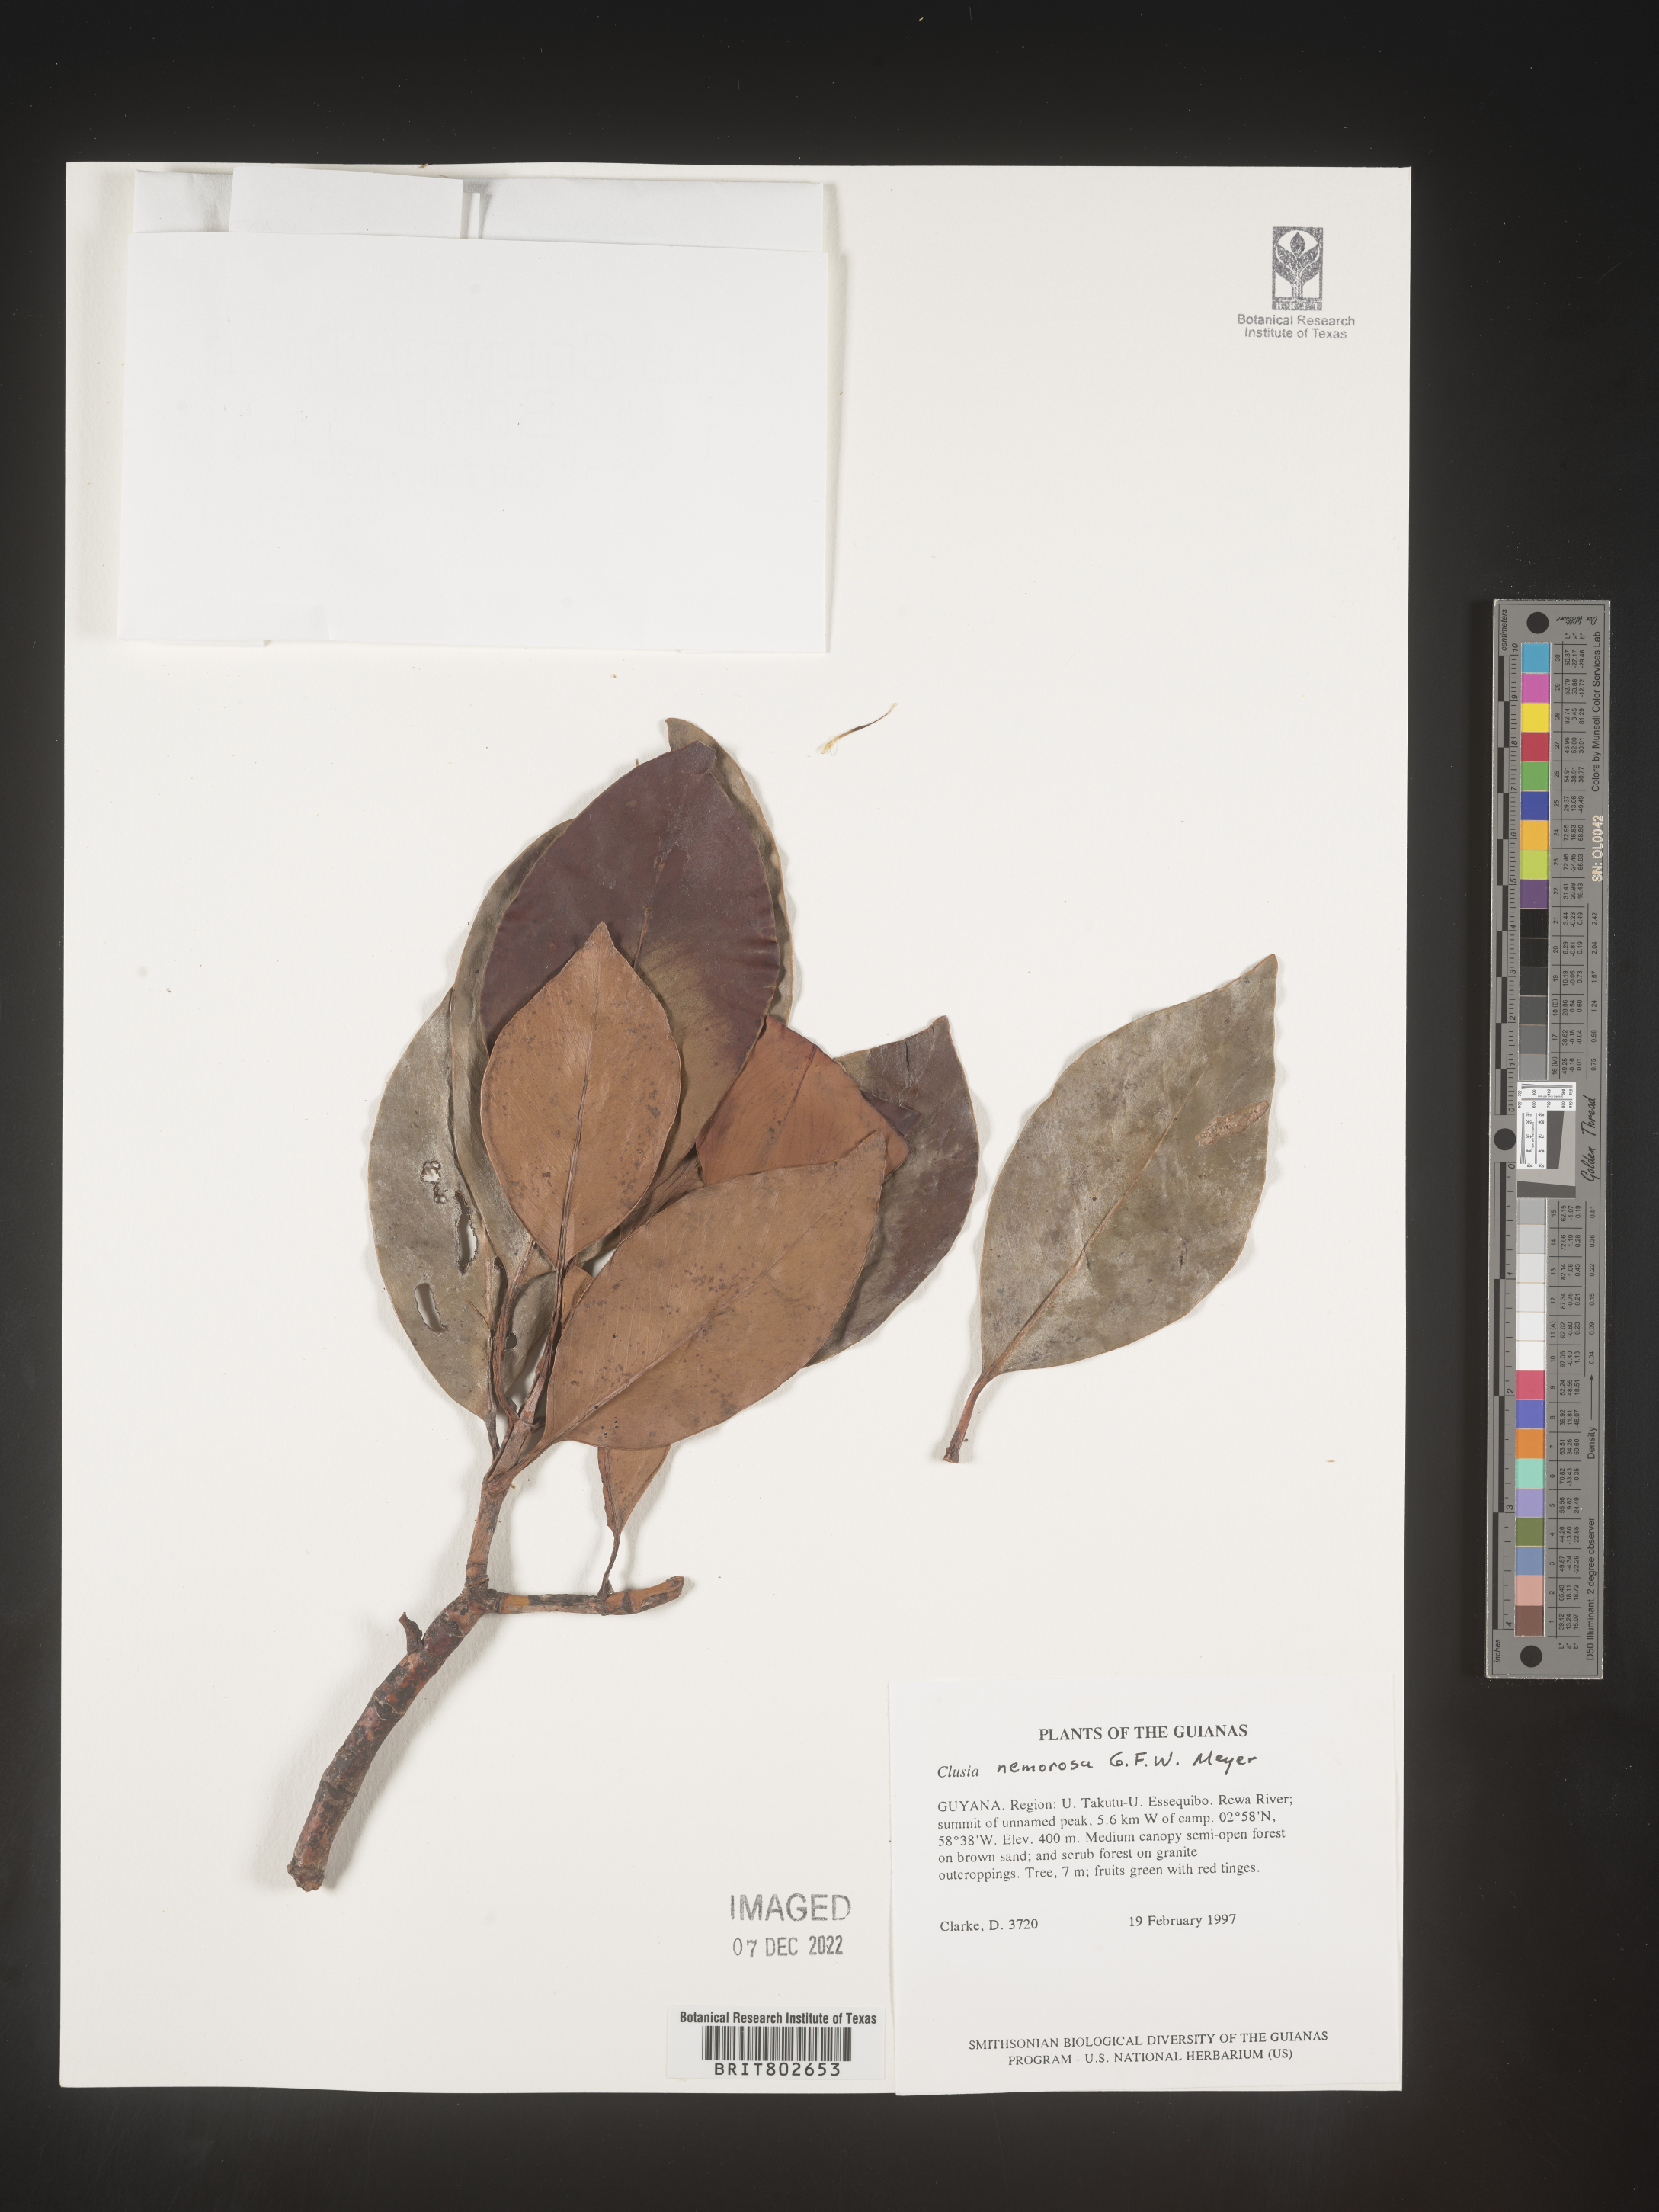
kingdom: Plantae
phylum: Tracheophyta
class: Magnoliopsida
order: Malpighiales
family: Clusiaceae
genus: Clusia
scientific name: Clusia nemorosa
